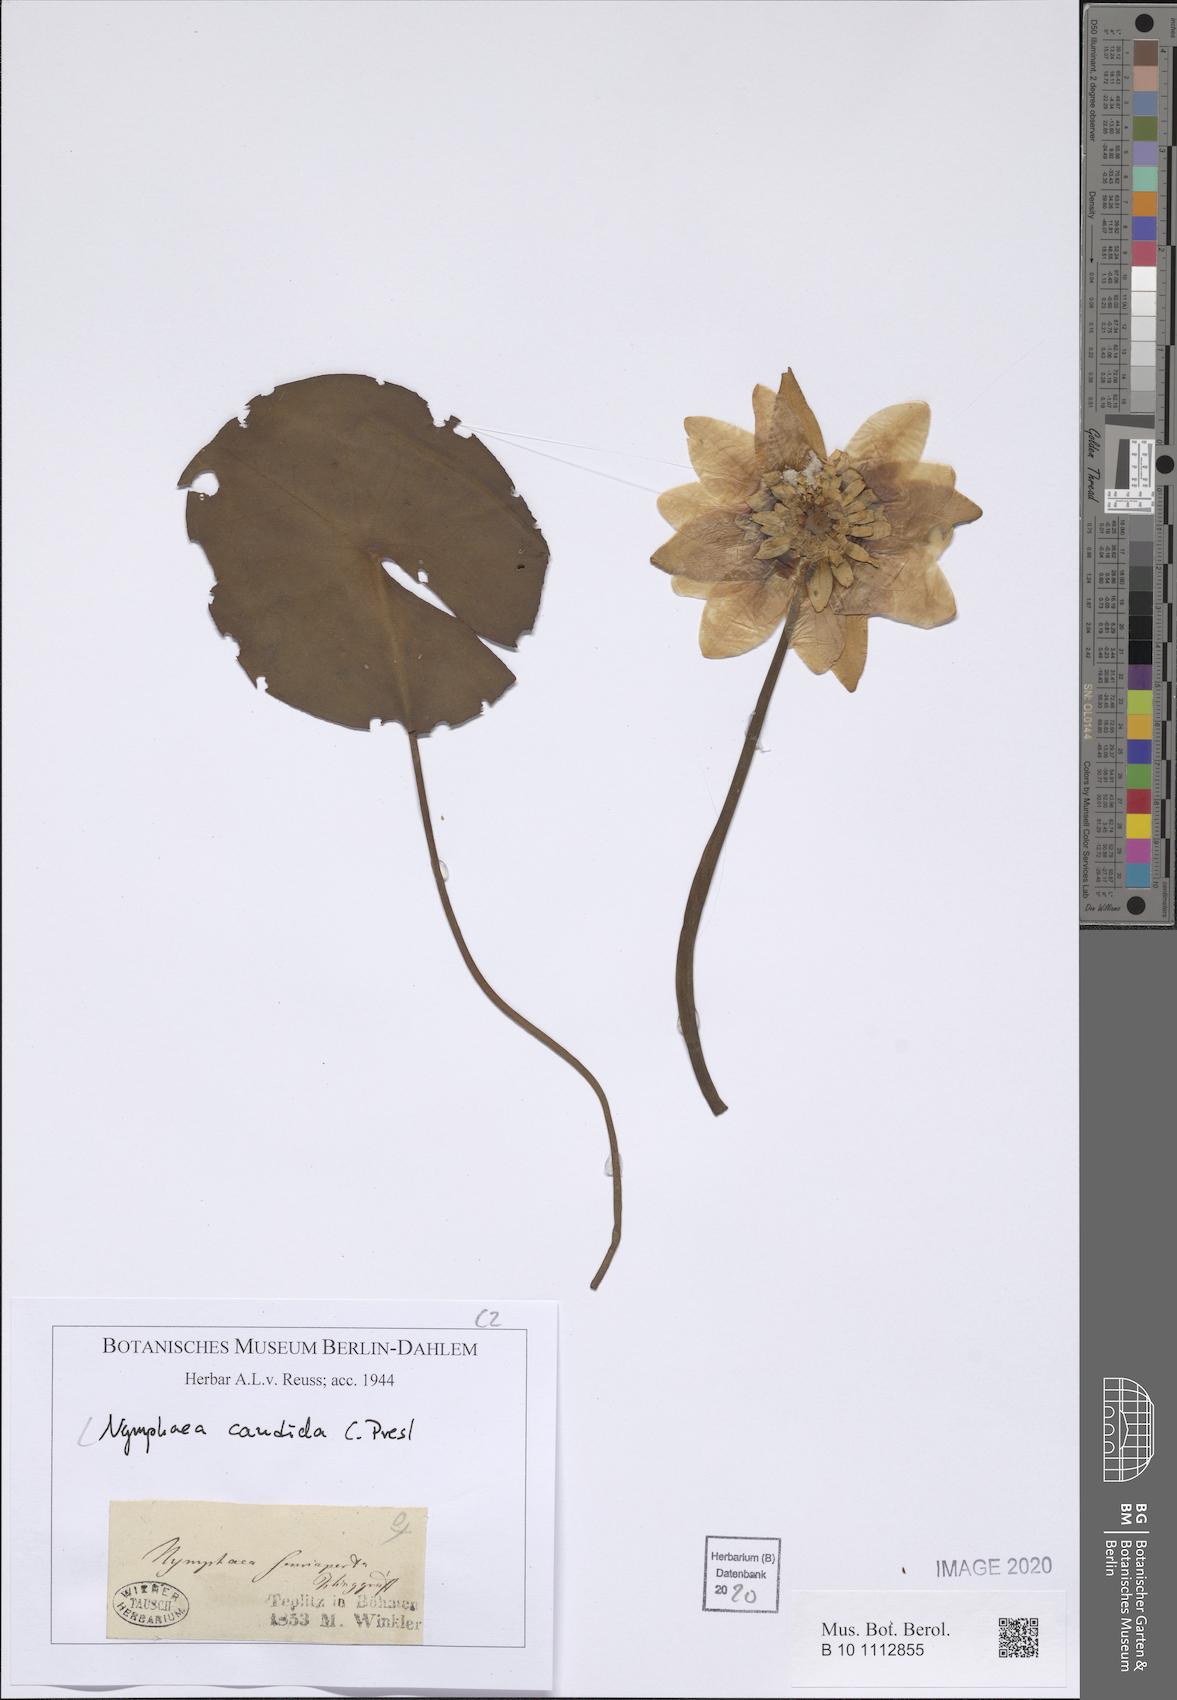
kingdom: Plantae
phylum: Tracheophyta
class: Magnoliopsida
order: Nymphaeales
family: Nymphaeaceae
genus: Nymphaea
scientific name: Nymphaea candida
